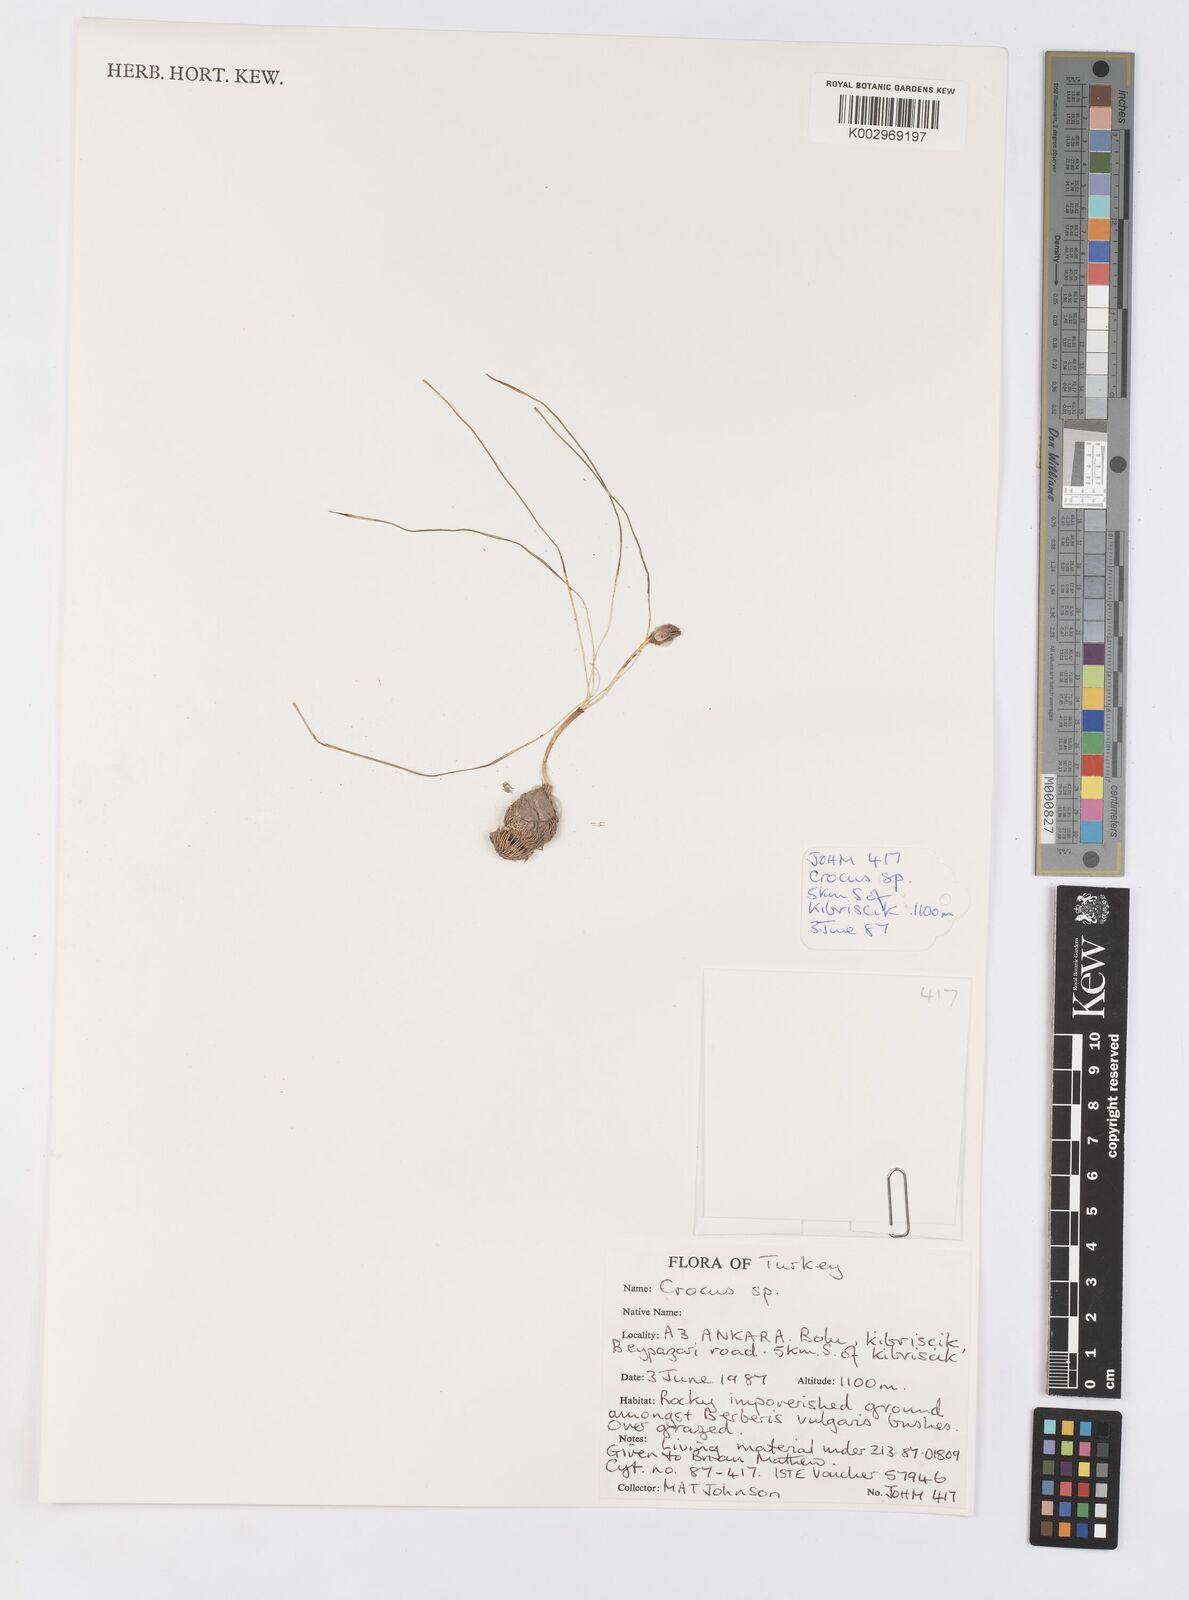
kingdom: Plantae
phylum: Tracheophyta
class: Liliopsida
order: Asparagales
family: Iridaceae
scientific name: Iridaceae
